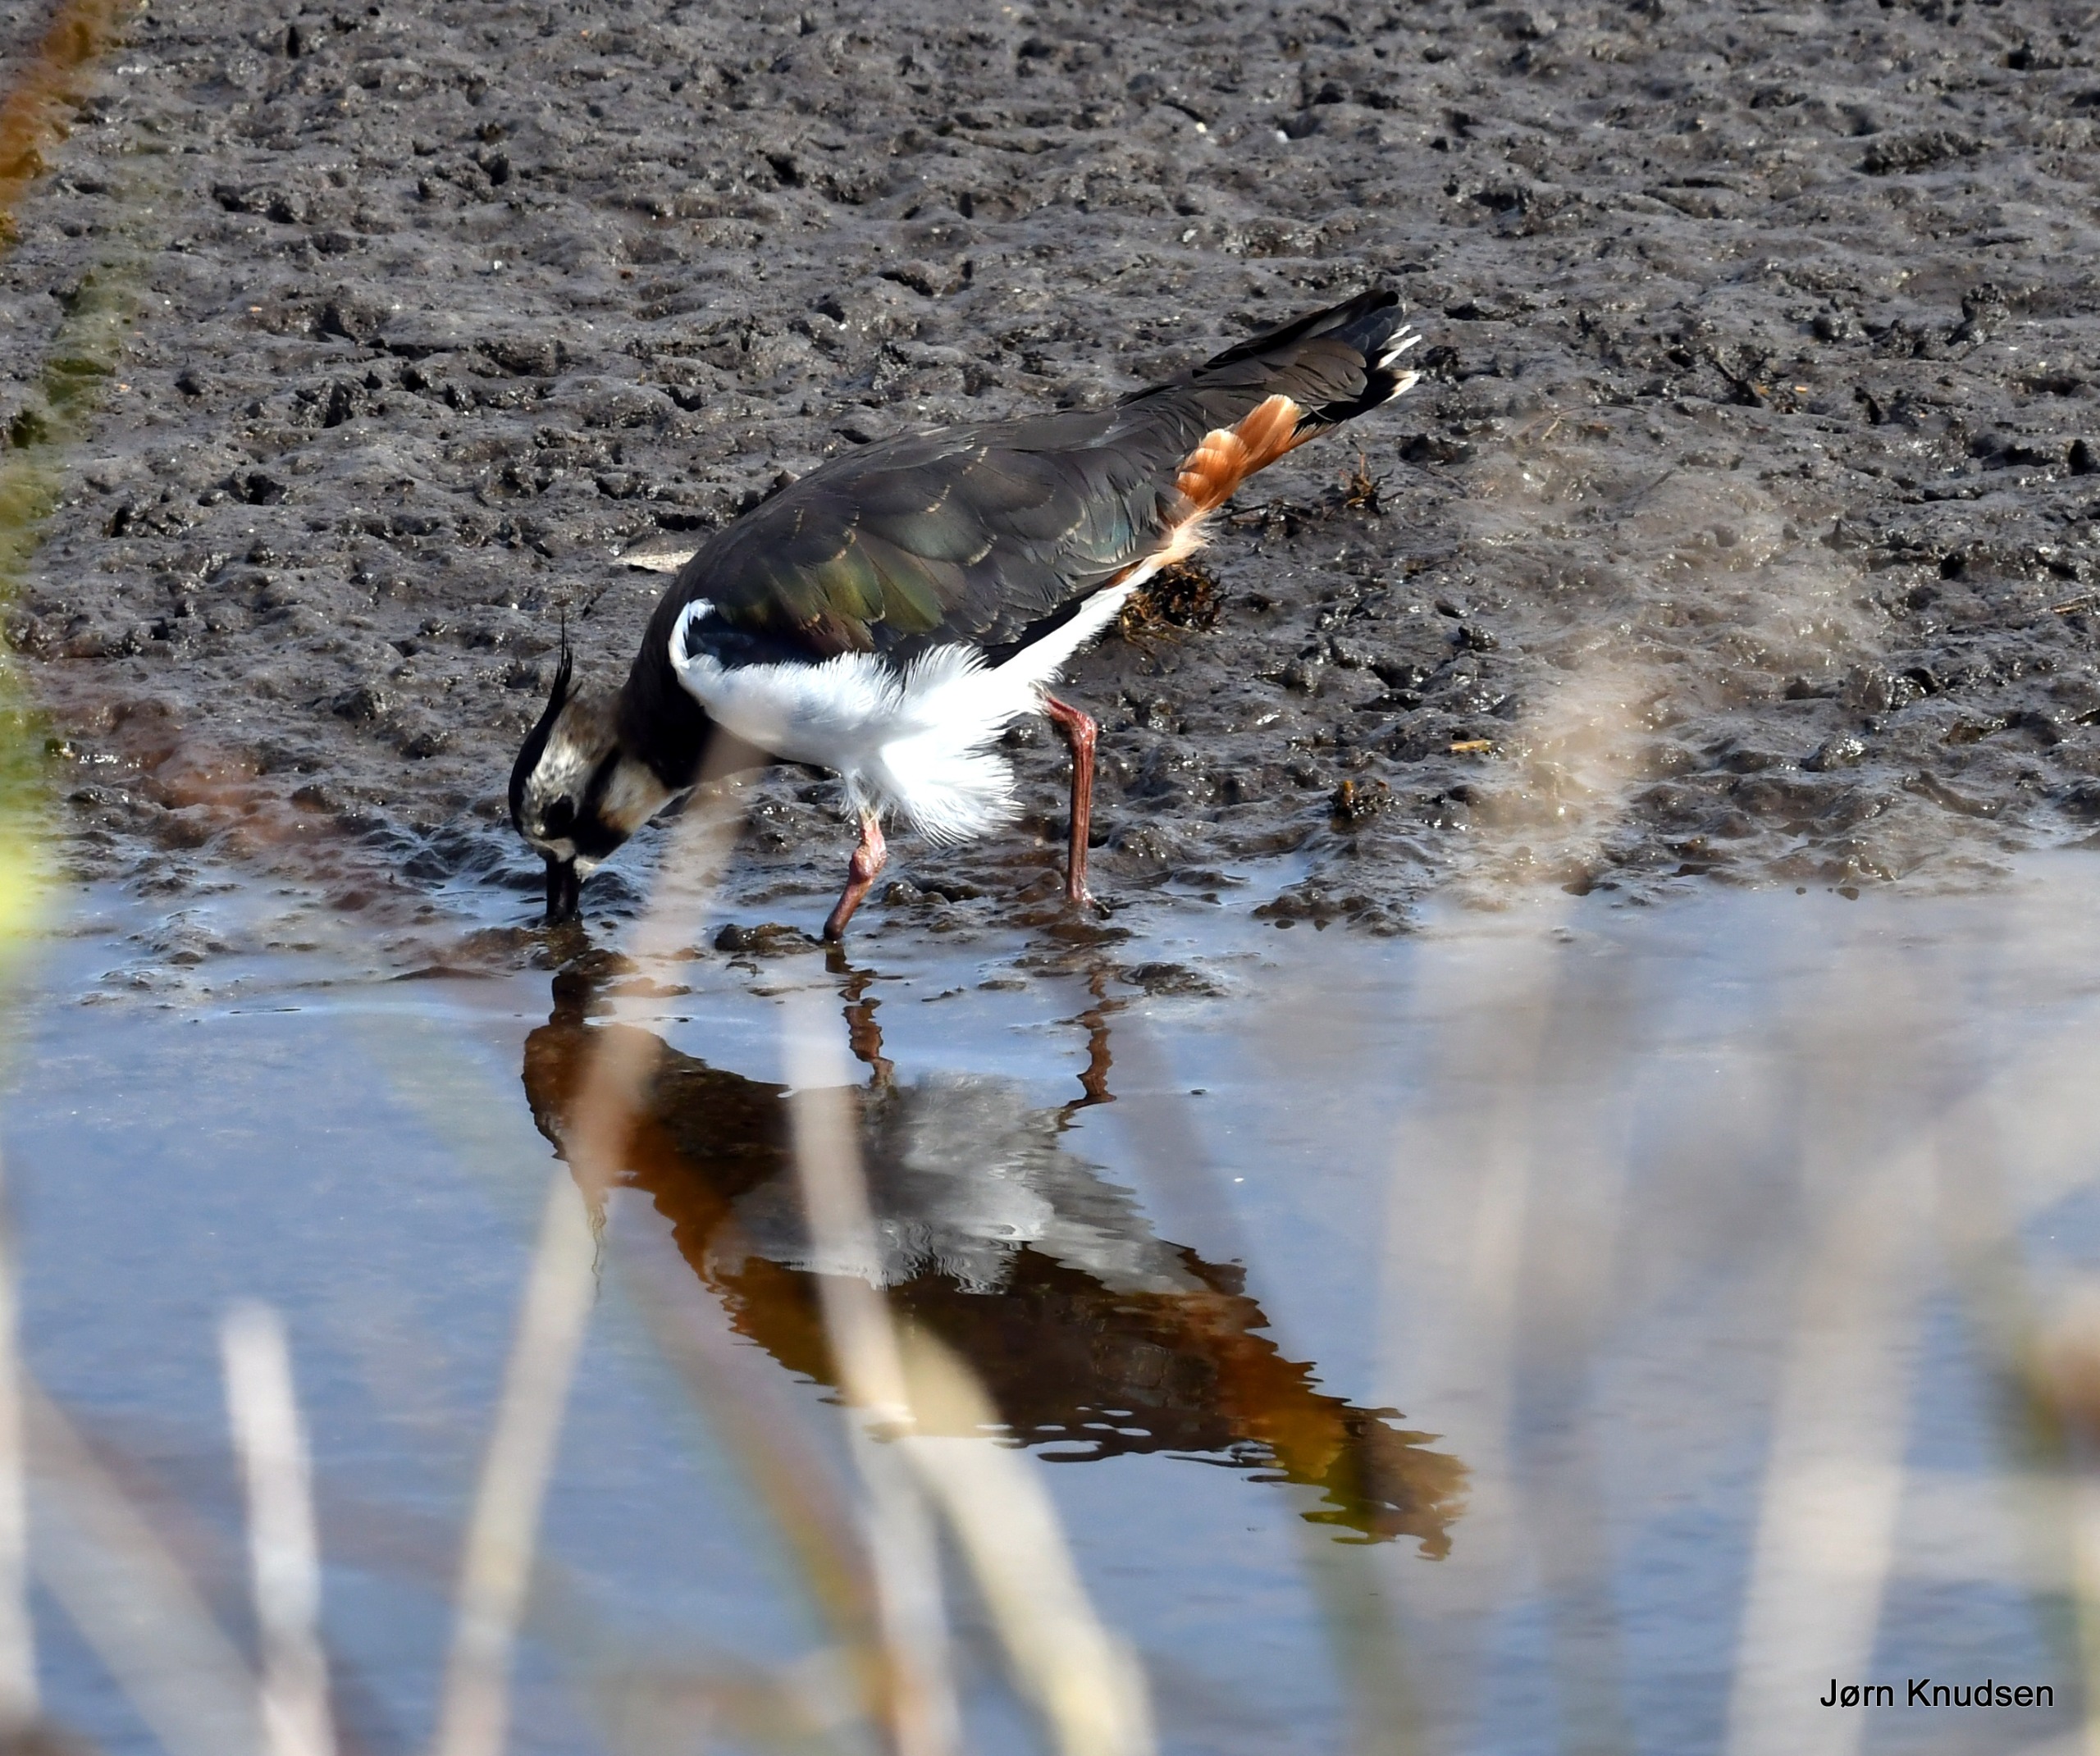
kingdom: Animalia
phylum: Chordata
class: Aves
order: Charadriiformes
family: Charadriidae
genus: Vanellus
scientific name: Vanellus vanellus
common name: Vibe
